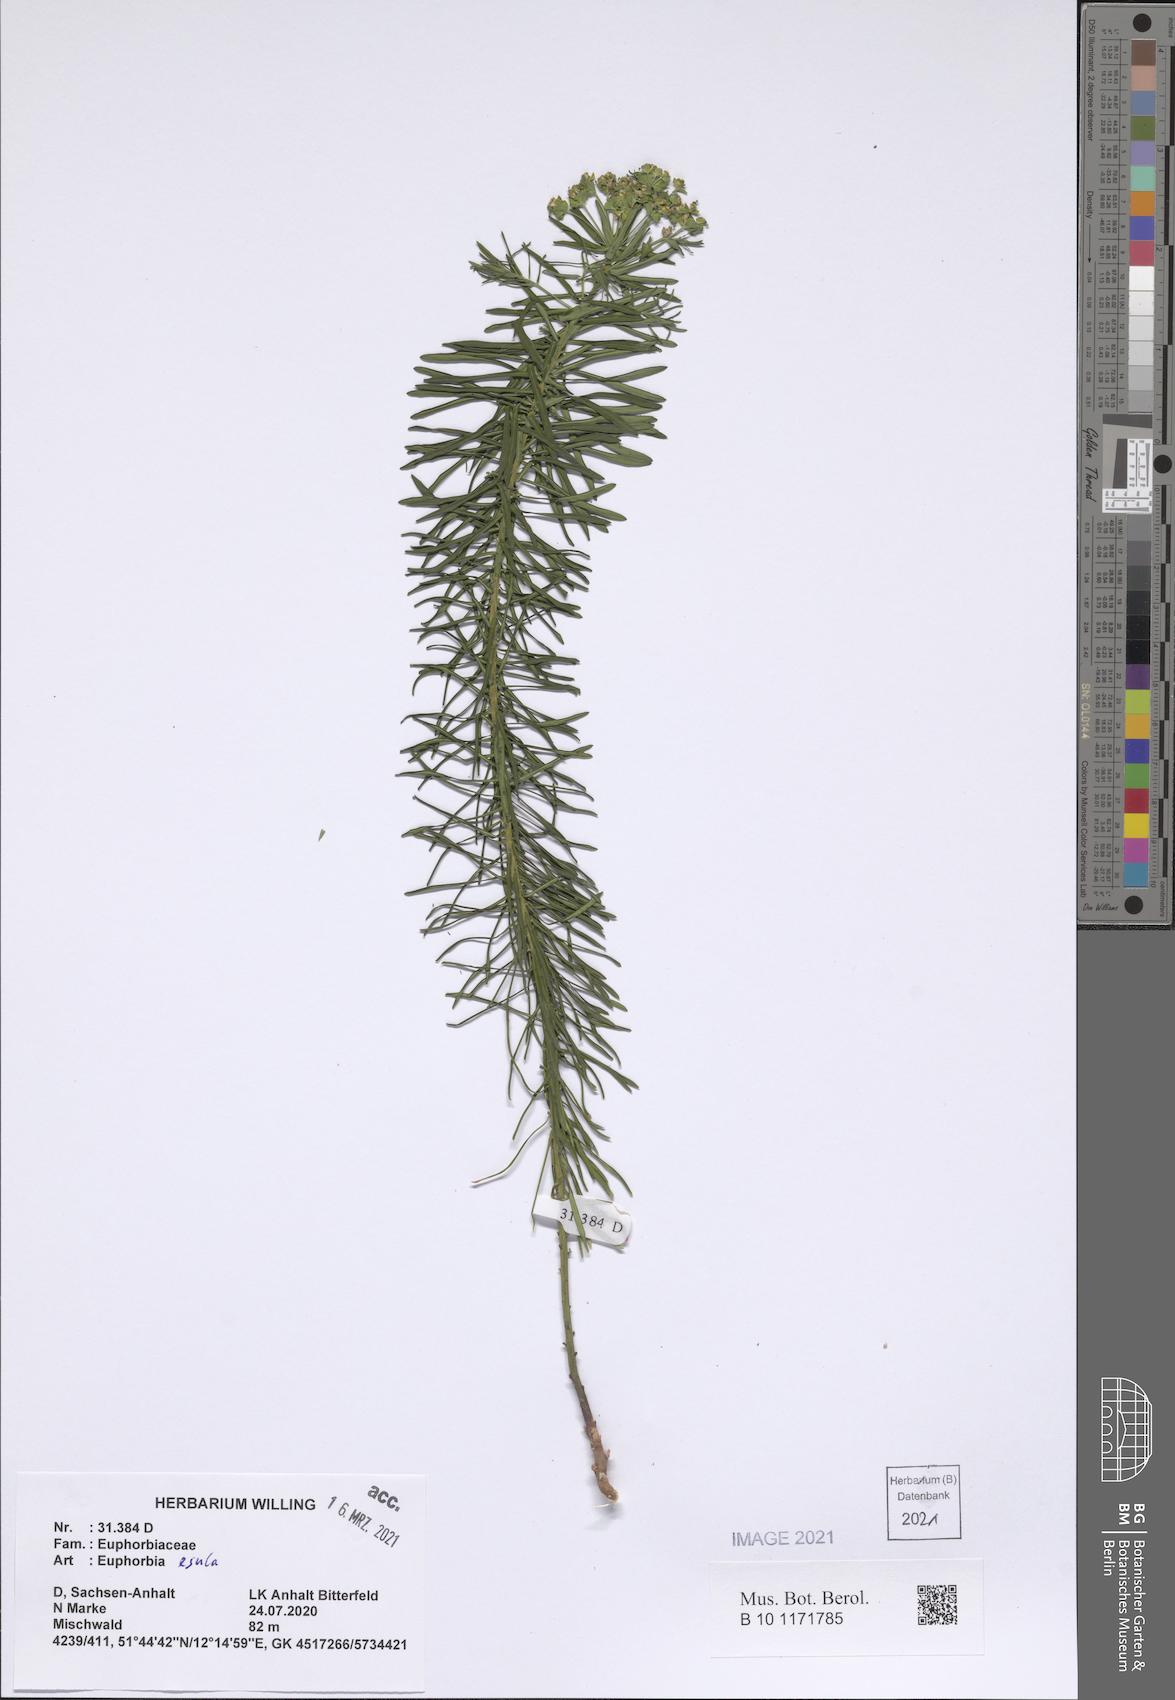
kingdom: Plantae
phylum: Tracheophyta
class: Magnoliopsida
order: Malpighiales
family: Euphorbiaceae
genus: Euphorbia
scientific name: Euphorbia esula
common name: Leafy spurge
